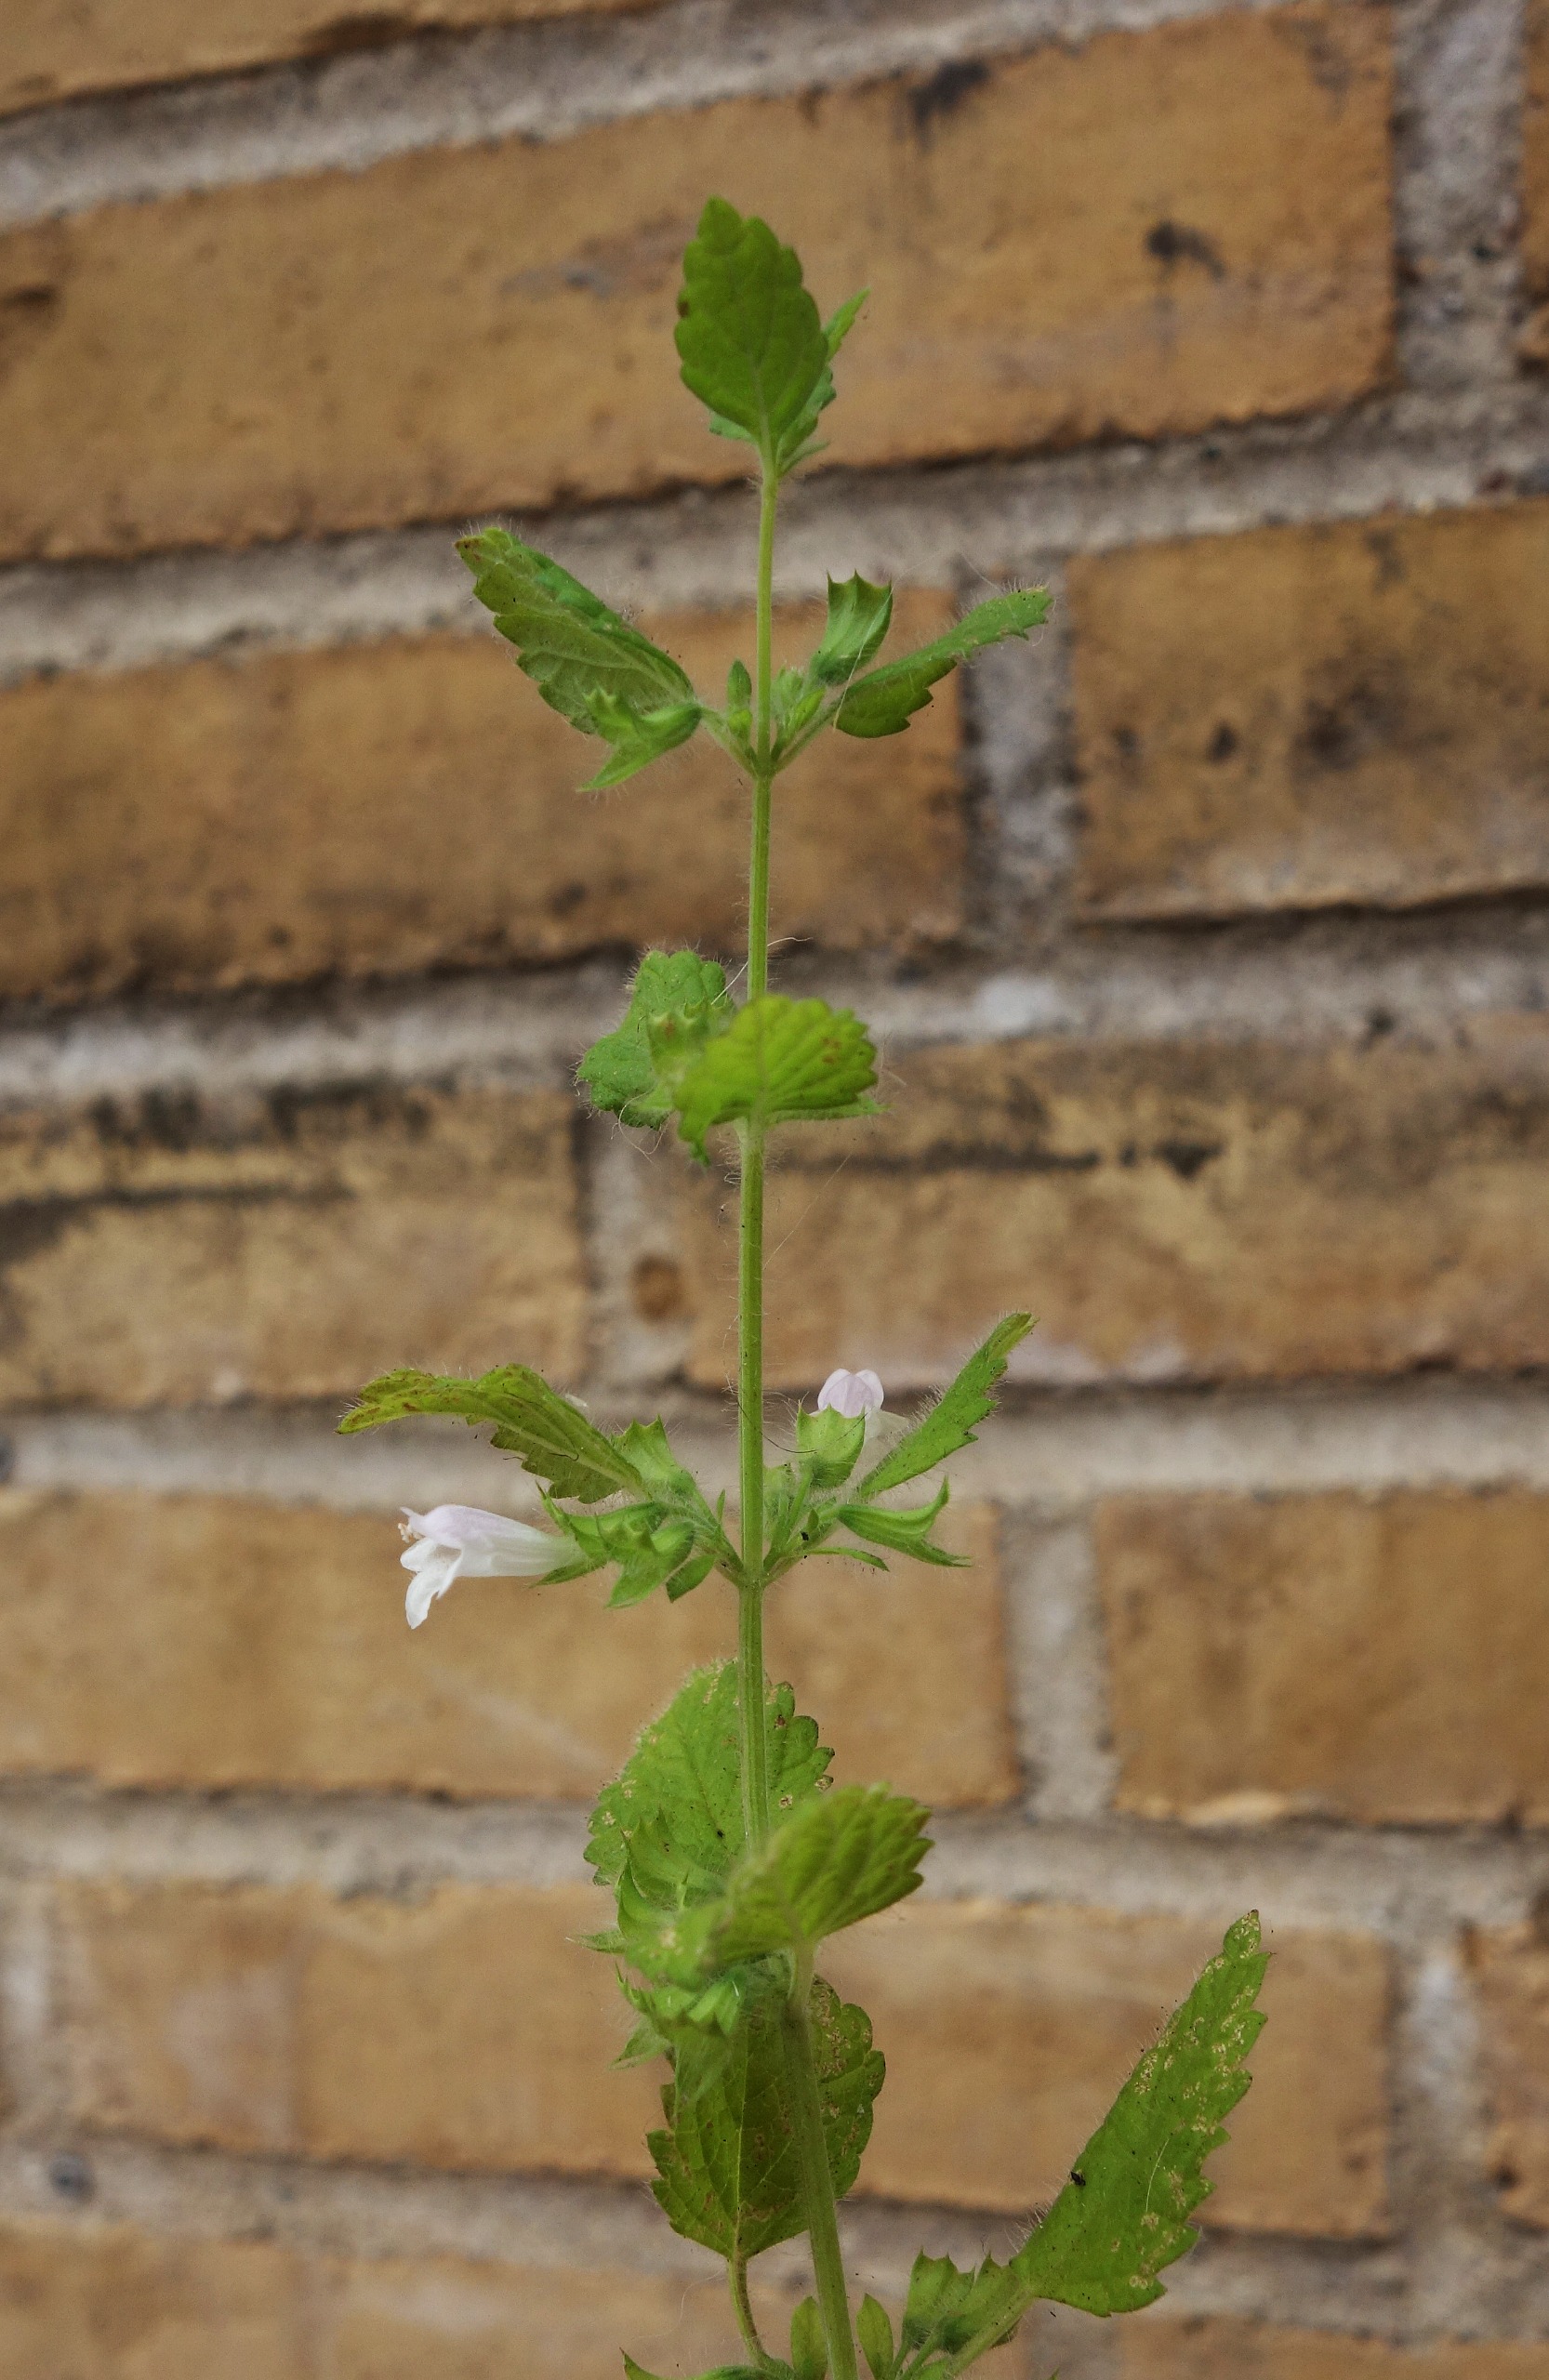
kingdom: Plantae
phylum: Tracheophyta
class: Magnoliopsida
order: Lamiales
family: Lamiaceae
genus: Melissa
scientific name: Melissa officinalis
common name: Citronmelisse
